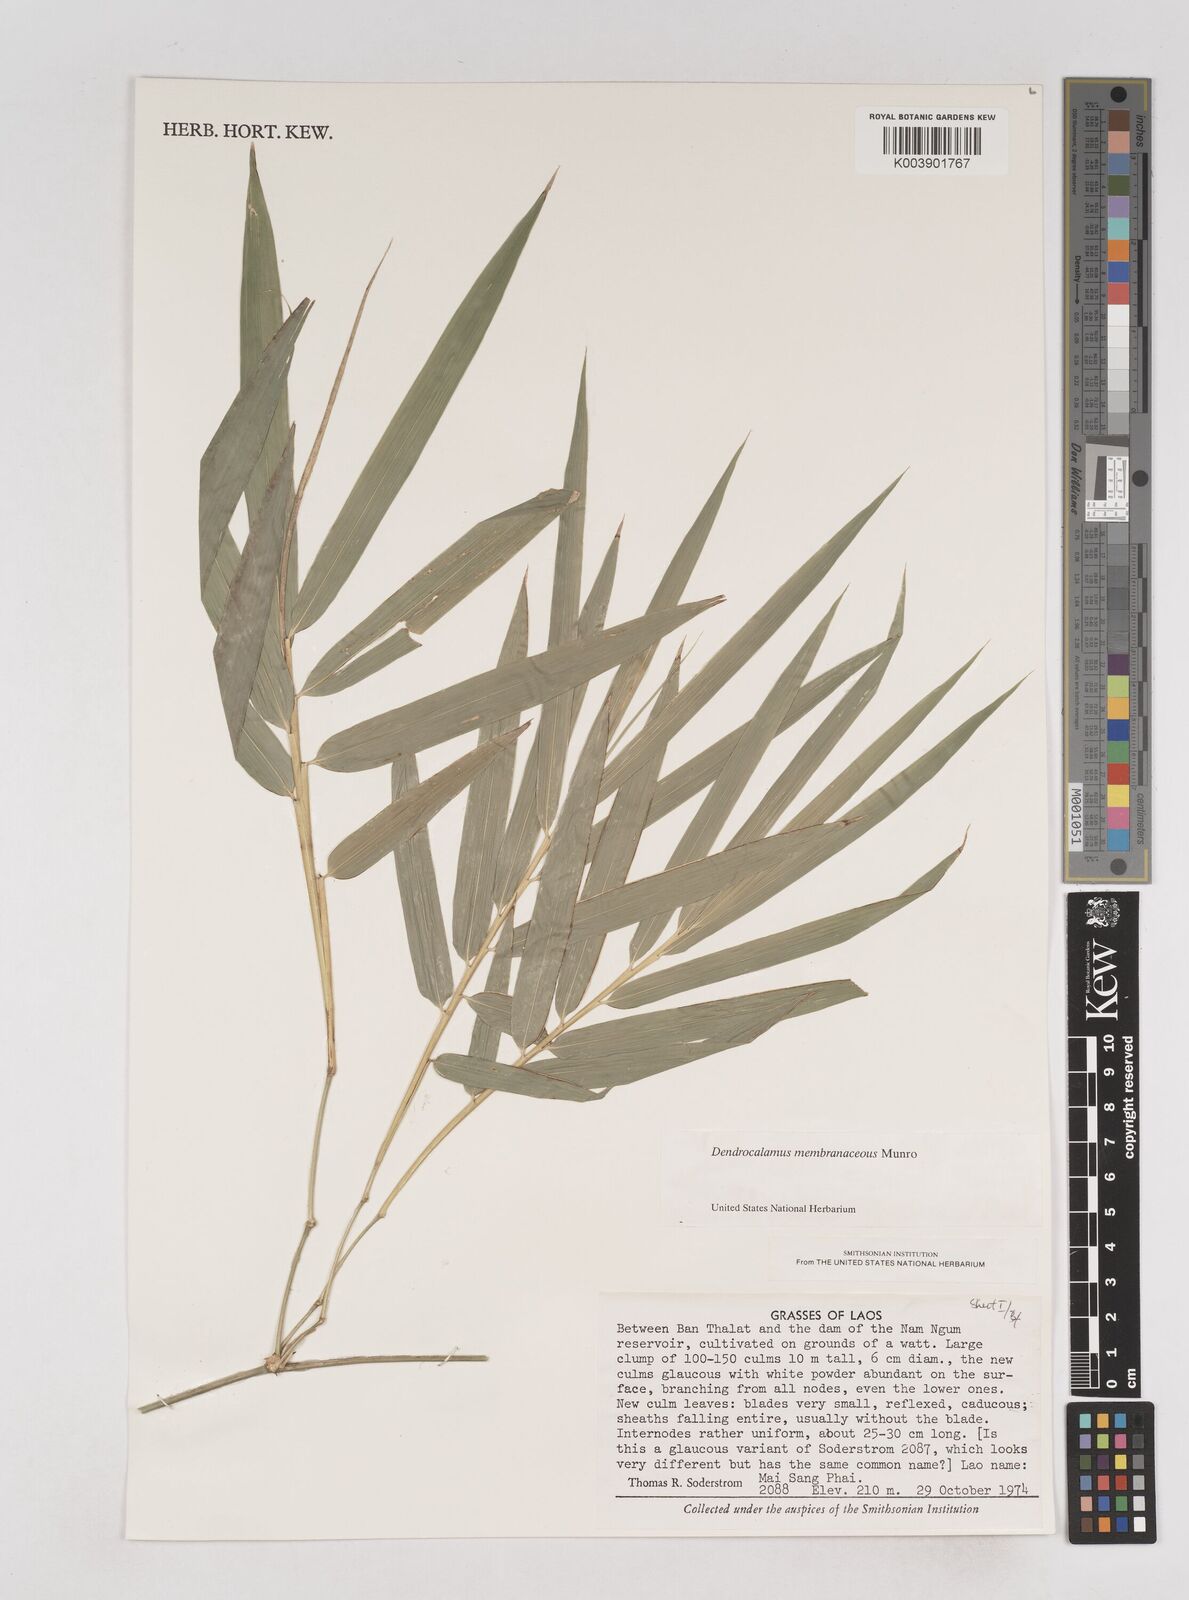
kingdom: Plantae
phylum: Tracheophyta
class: Liliopsida
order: Poales
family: Poaceae
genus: Schizostachyum
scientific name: Schizostachyum
